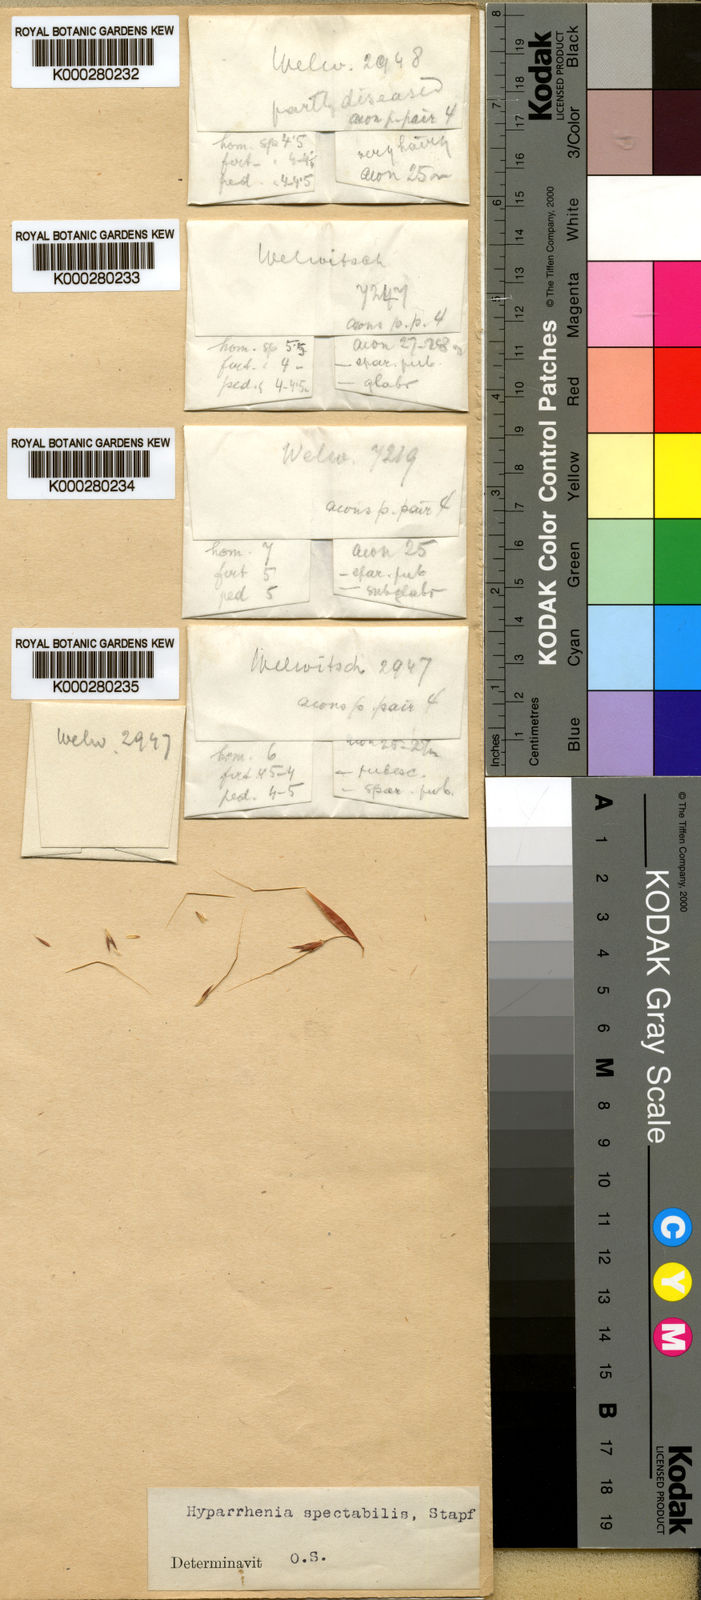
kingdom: Plantae
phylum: Tracheophyta
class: Liliopsida
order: Poales
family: Poaceae
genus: Hyparrhenia
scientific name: Hyparrhenia variabilis
